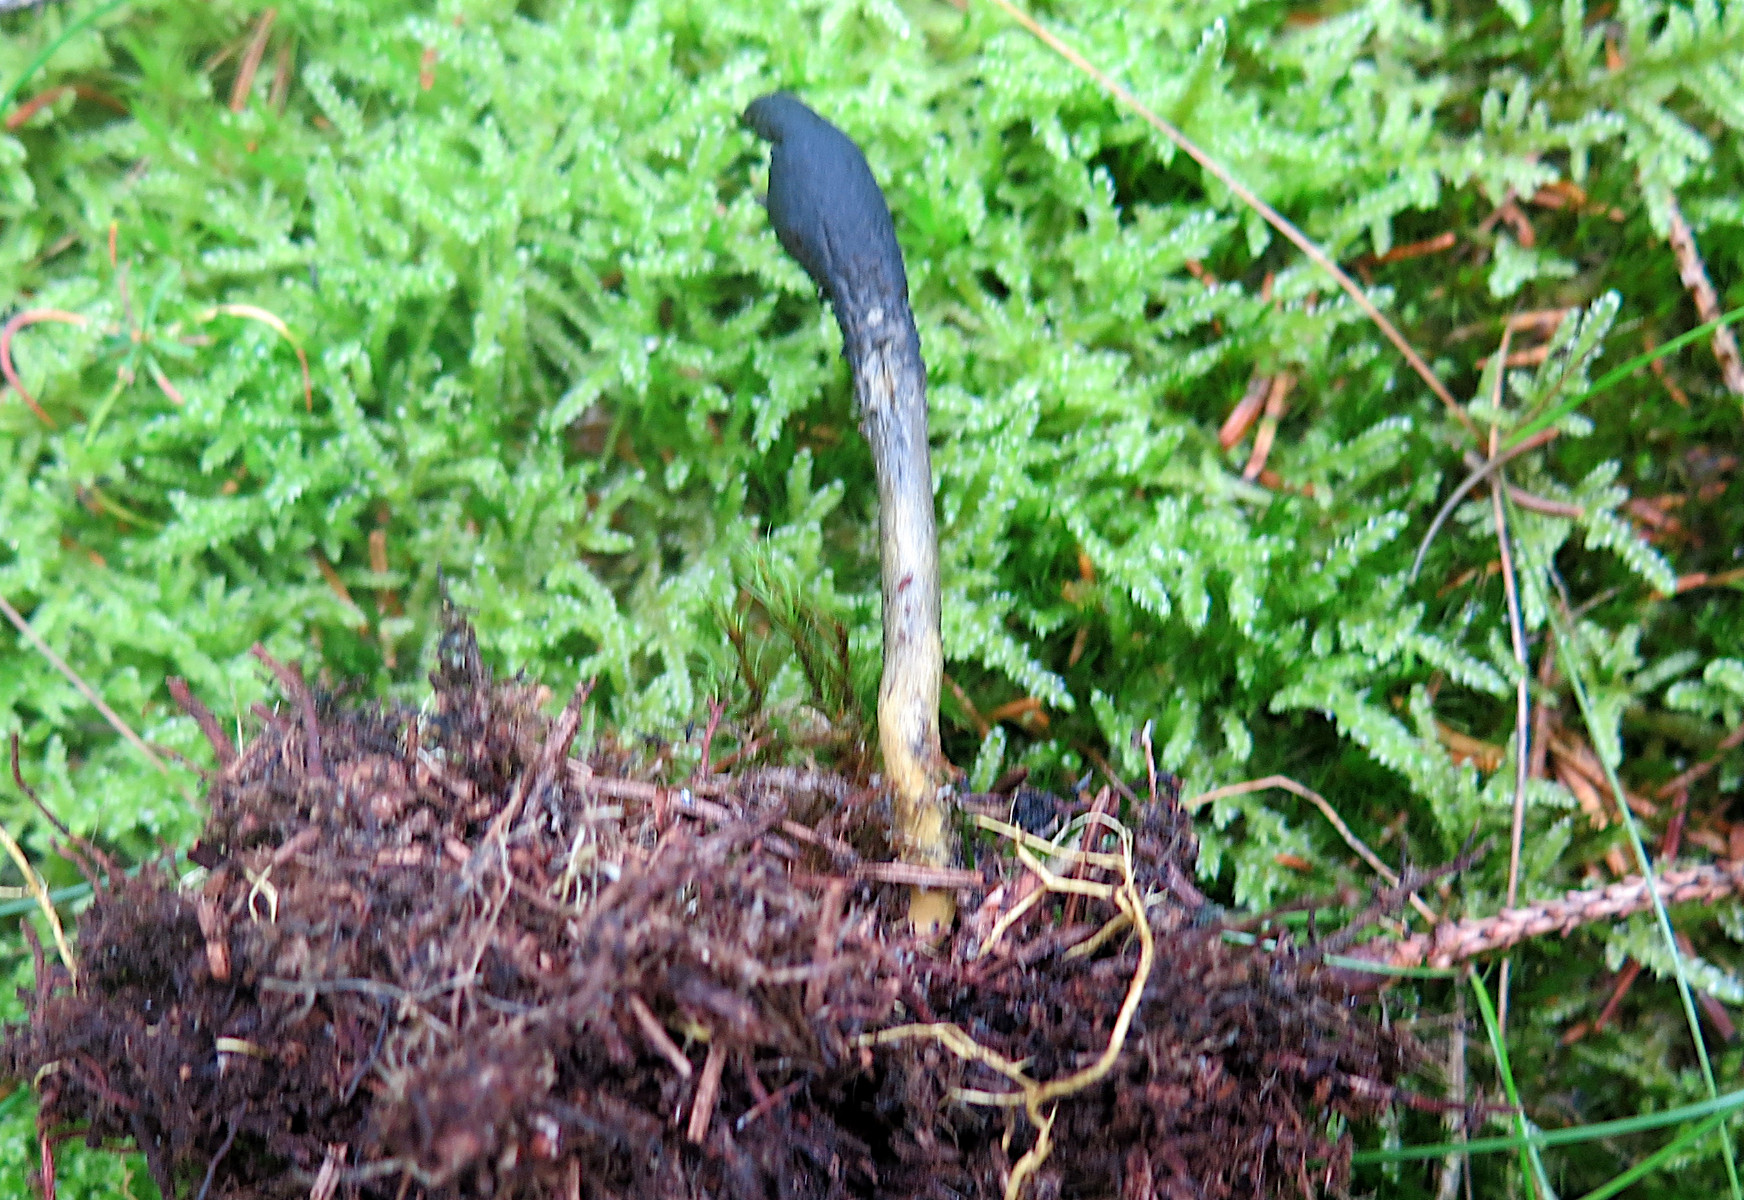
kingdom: Fungi
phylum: Ascomycota
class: Sordariomycetes
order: Hypocreales
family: Ophiocordycipitaceae
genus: Tolypocladium
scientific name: Tolypocladium ophioglossoides
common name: slank snyltekølle
